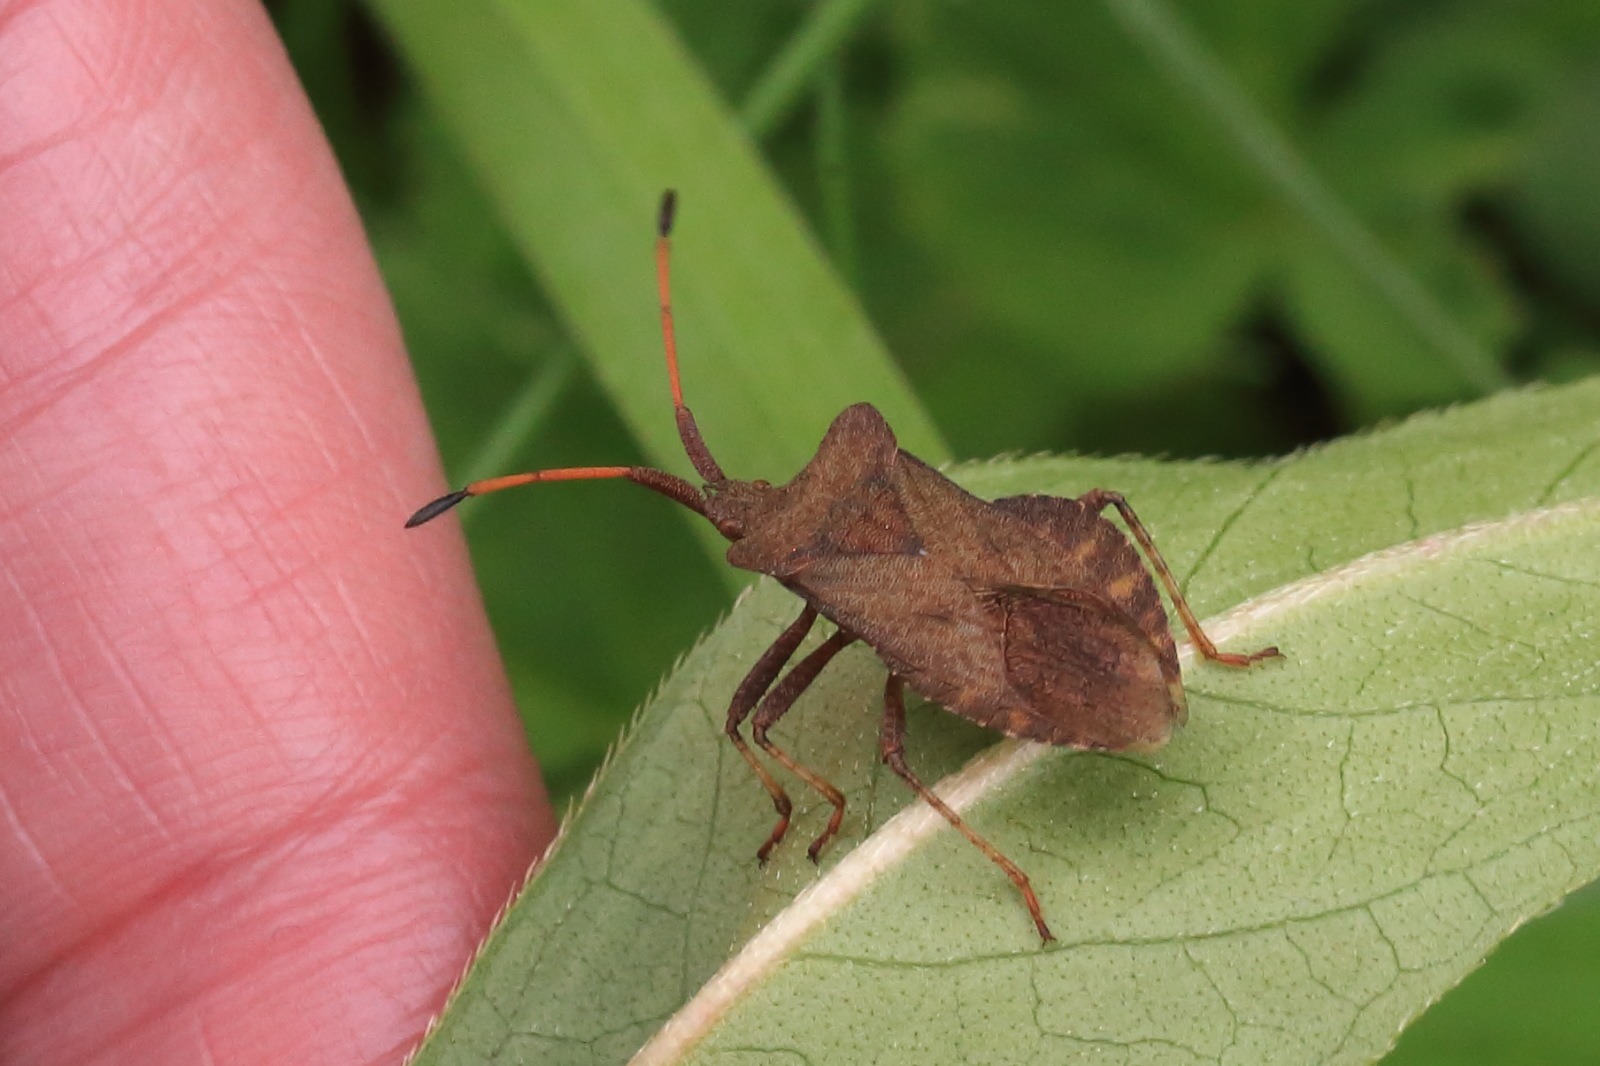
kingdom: Animalia
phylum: Arthropoda
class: Insecta
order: Hemiptera
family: Coreidae
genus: Coreus
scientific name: Coreus marginatus
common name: Skræppetæge
